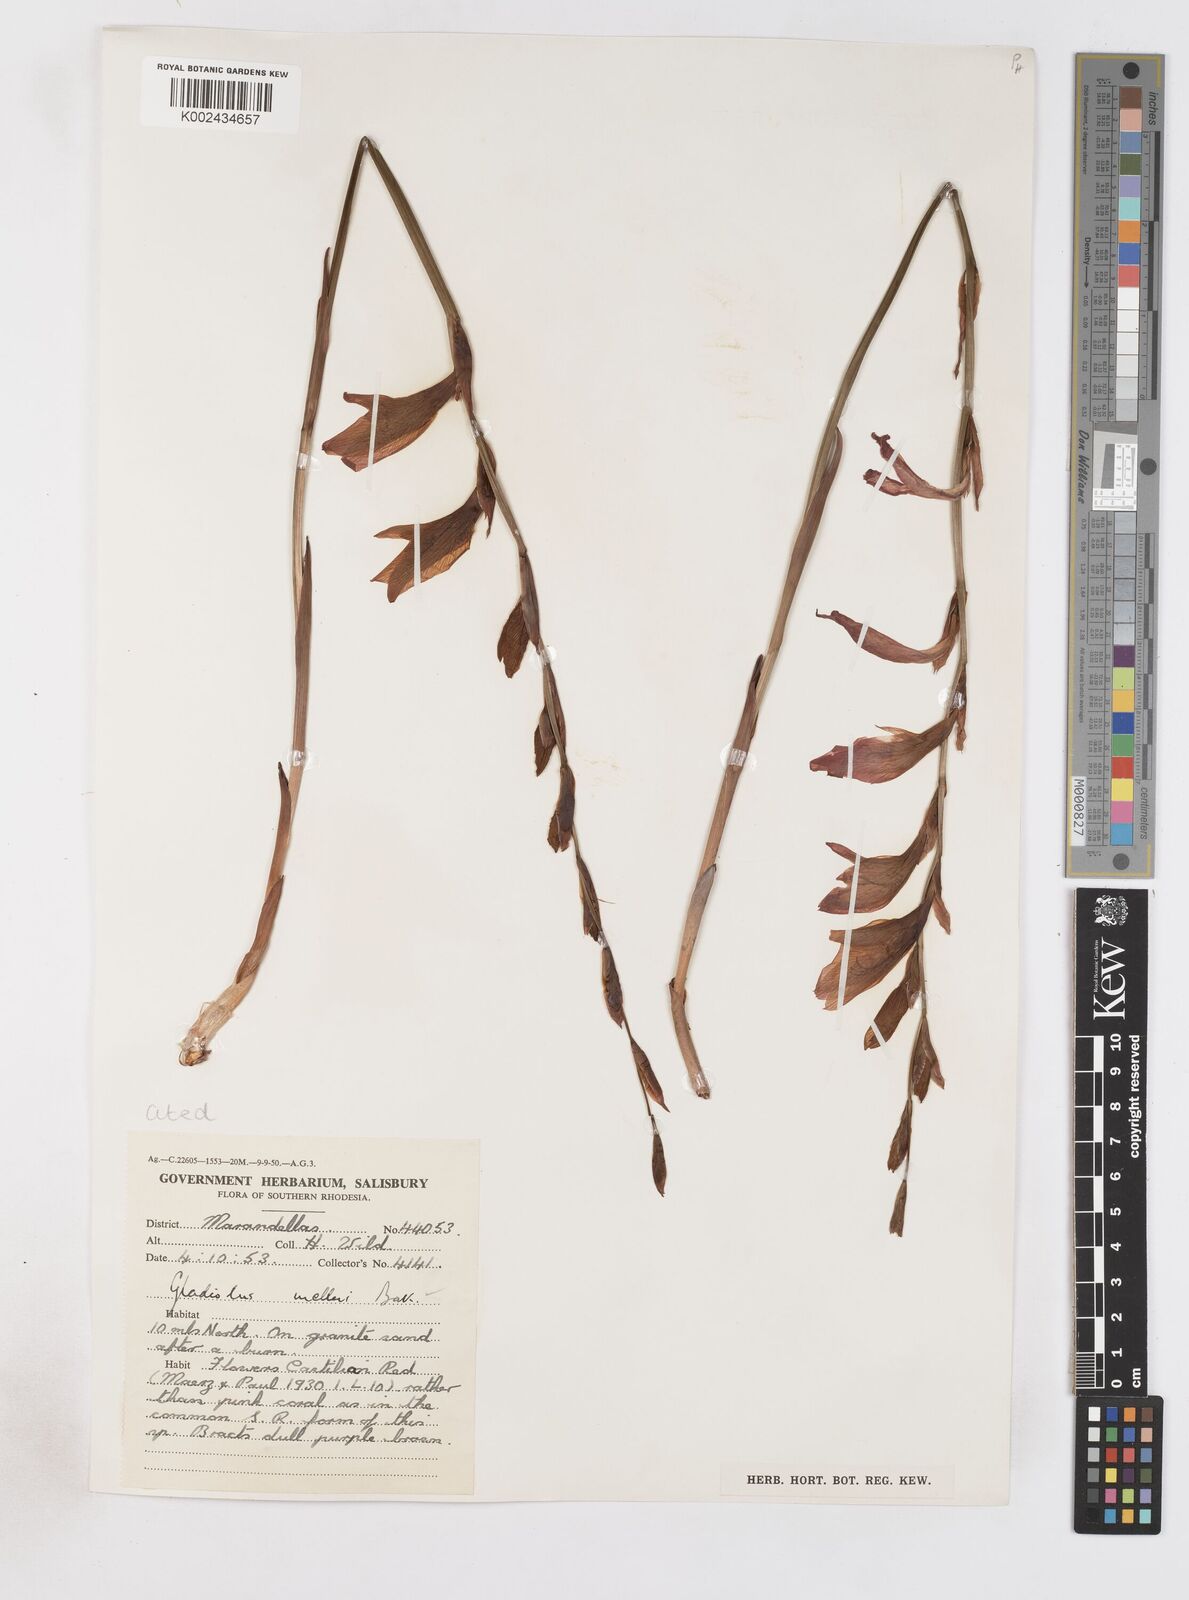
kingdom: Plantae
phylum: Tracheophyta
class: Liliopsida
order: Asparagales
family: Iridaceae
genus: Gladiolus
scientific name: Gladiolus melleri
